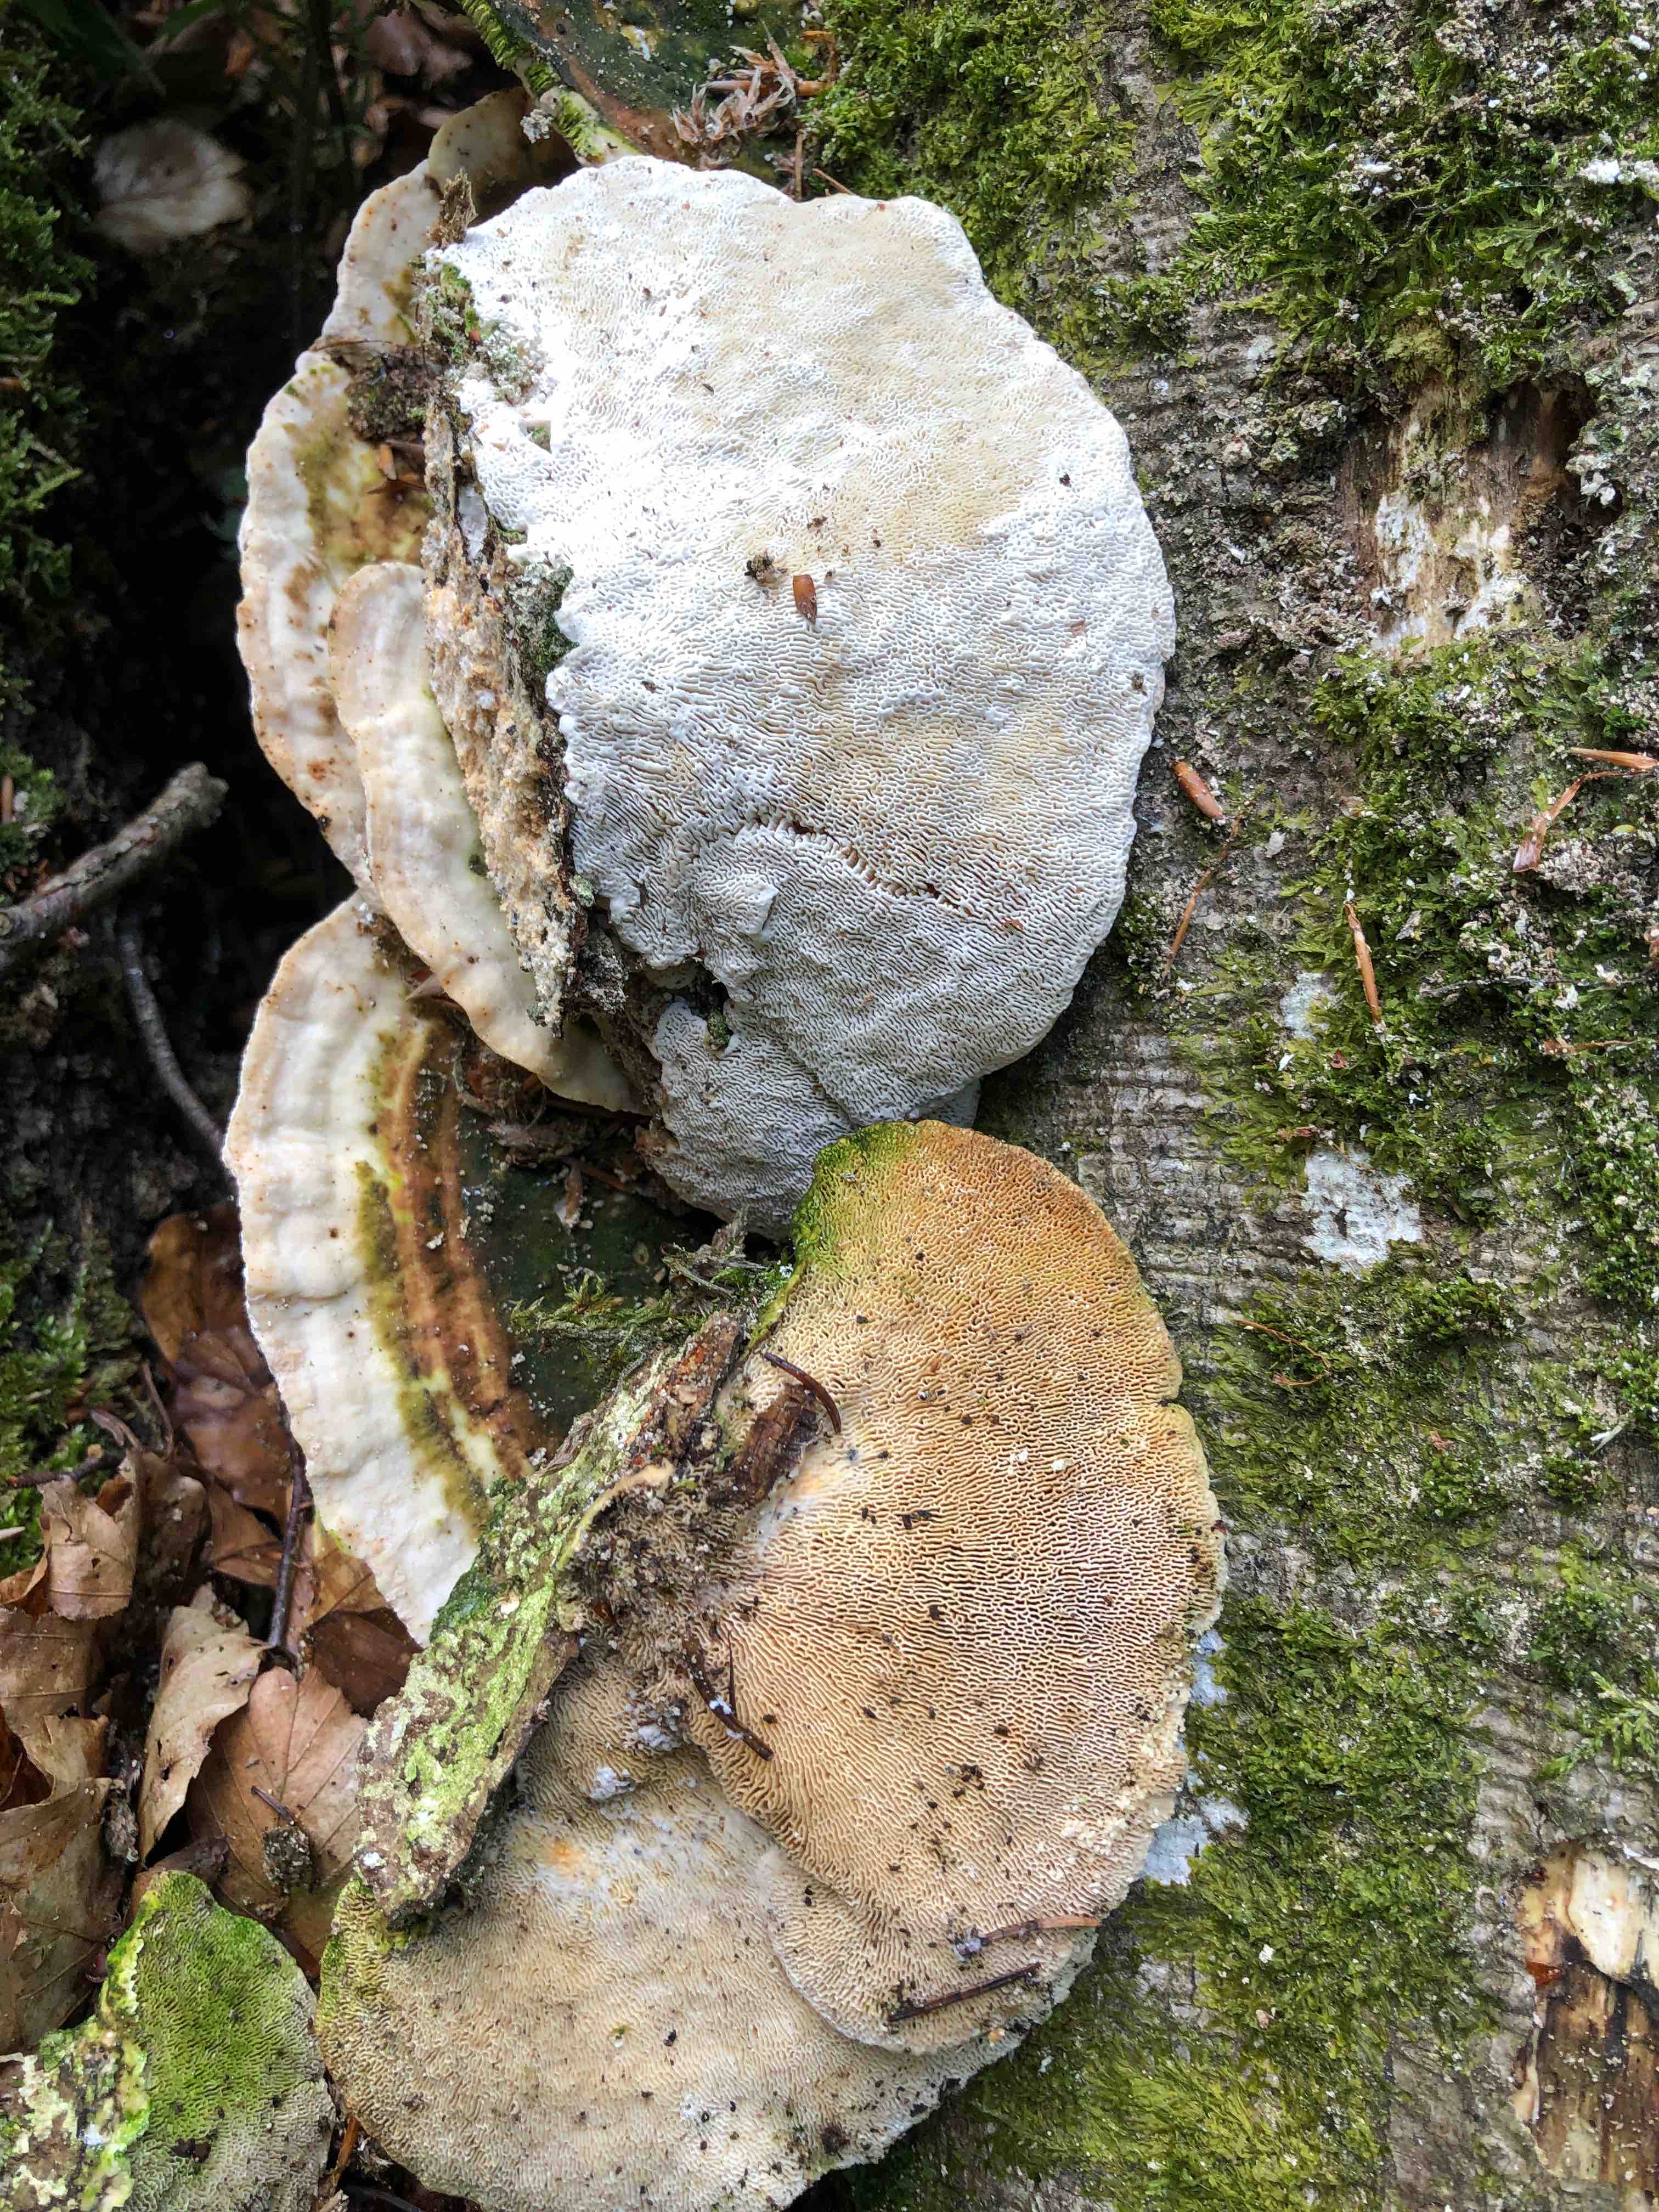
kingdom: Fungi
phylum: Basidiomycota
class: Agaricomycetes
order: Polyporales
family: Polyporaceae
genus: Trametes
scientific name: Trametes gibbosa
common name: puklet læderporesvamp
